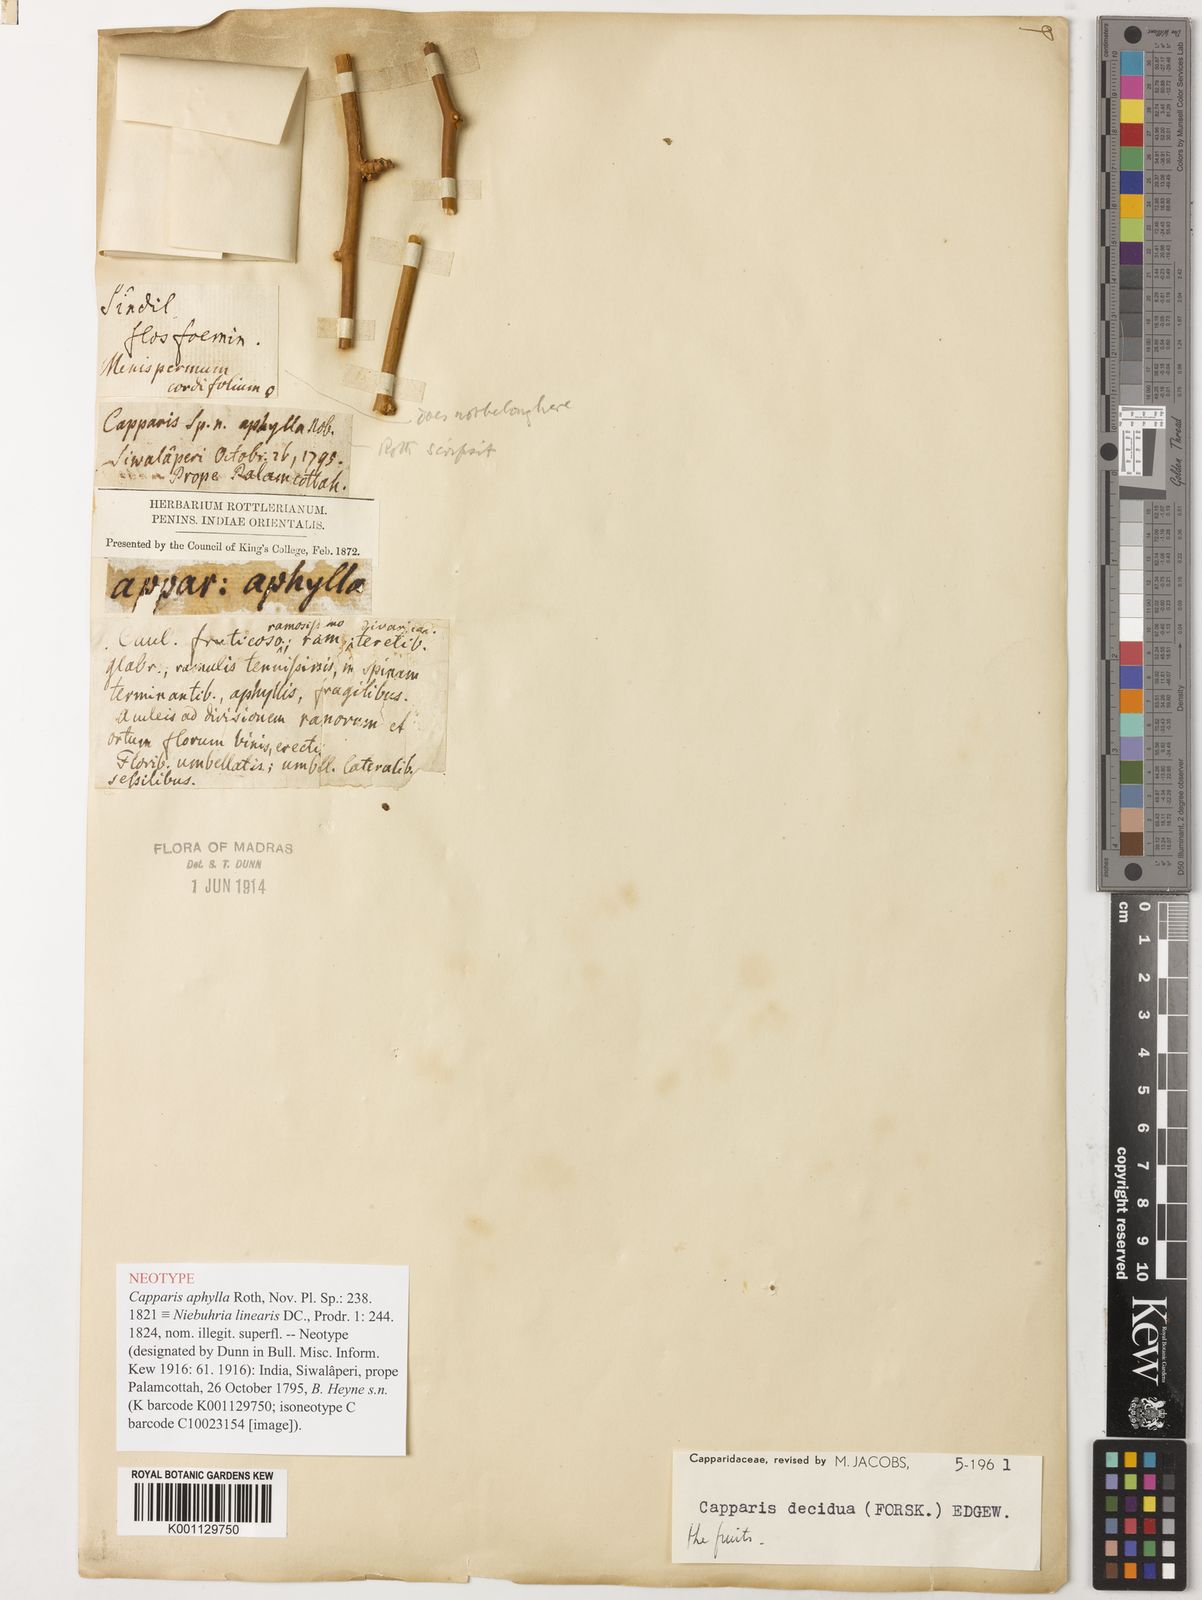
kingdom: Plantae
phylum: Tracheophyta
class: Magnoliopsida
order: Brassicales
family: Capparaceae
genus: Capparis
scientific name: Capparis decidua
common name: Sodada
